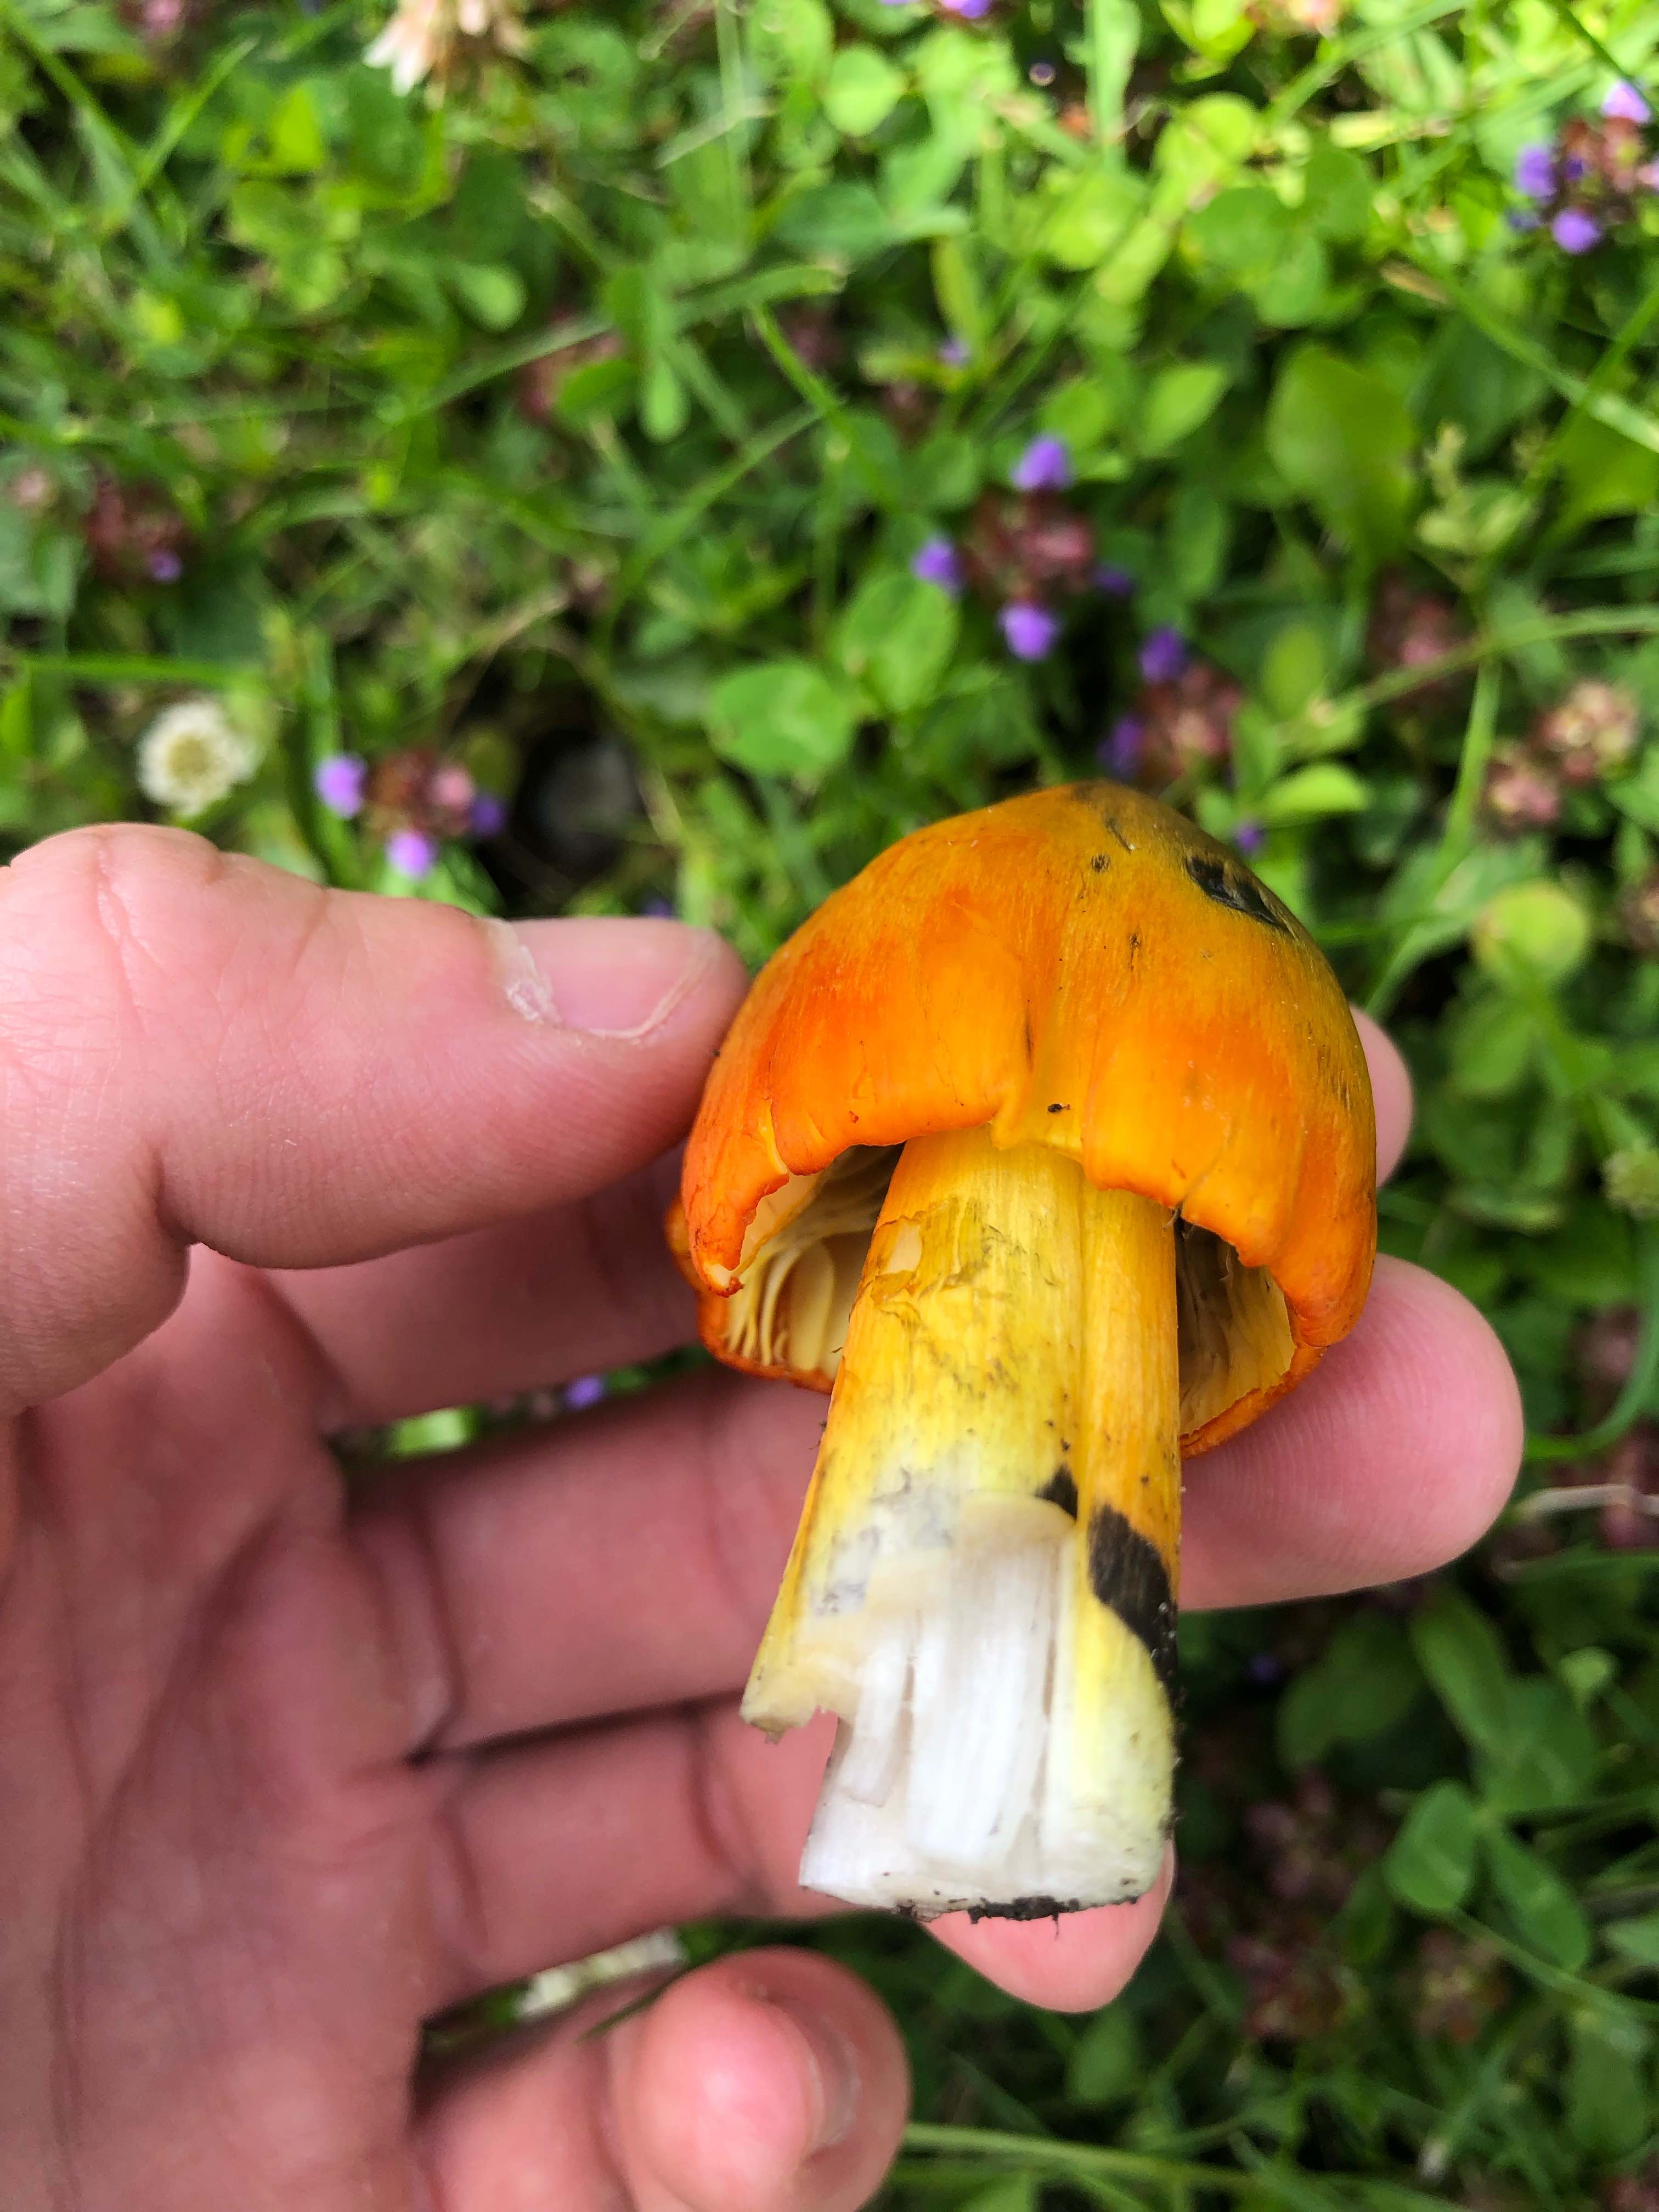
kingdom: Fungi
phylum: Basidiomycota
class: Agaricomycetes
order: Agaricales
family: Hygrophoraceae
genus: Hygrocybe
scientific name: Hygrocybe conica
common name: Blackening wax-cap
